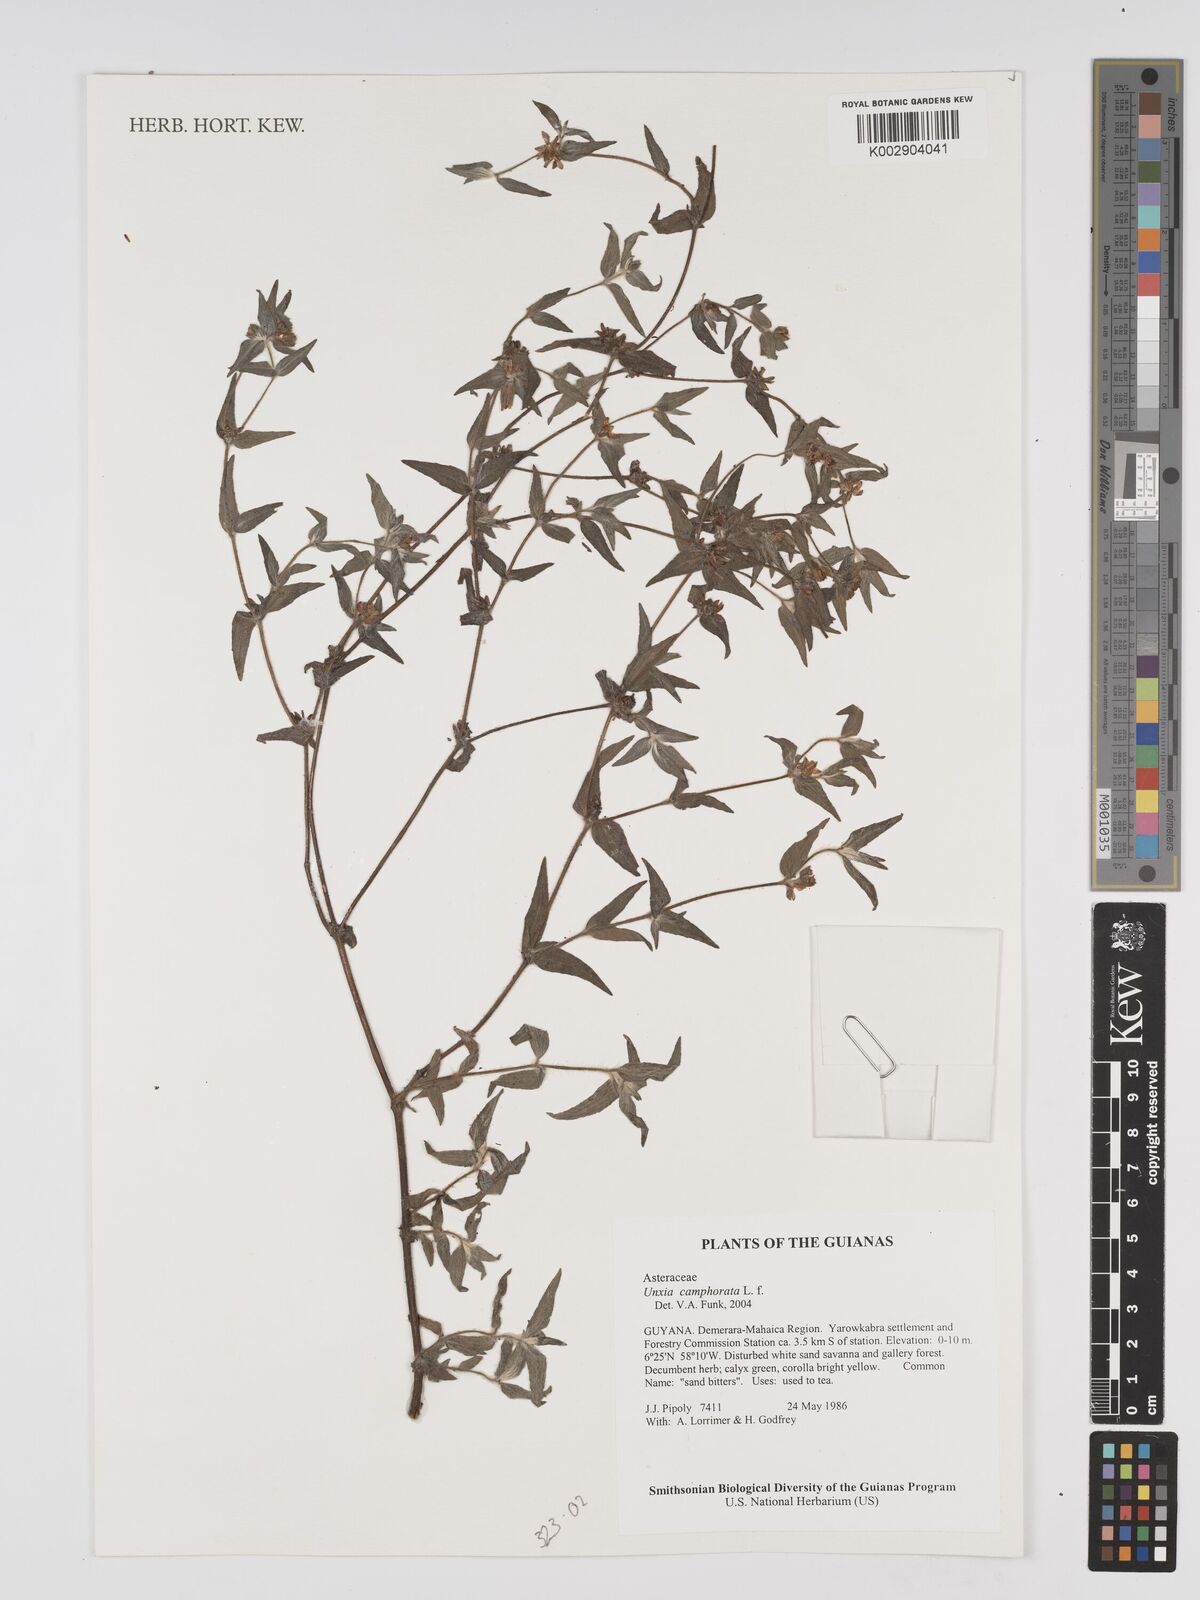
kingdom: Plantae
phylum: Tracheophyta
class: Magnoliopsida
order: Asterales
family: Asteraceae
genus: Unxia
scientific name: Unxia camphorata
